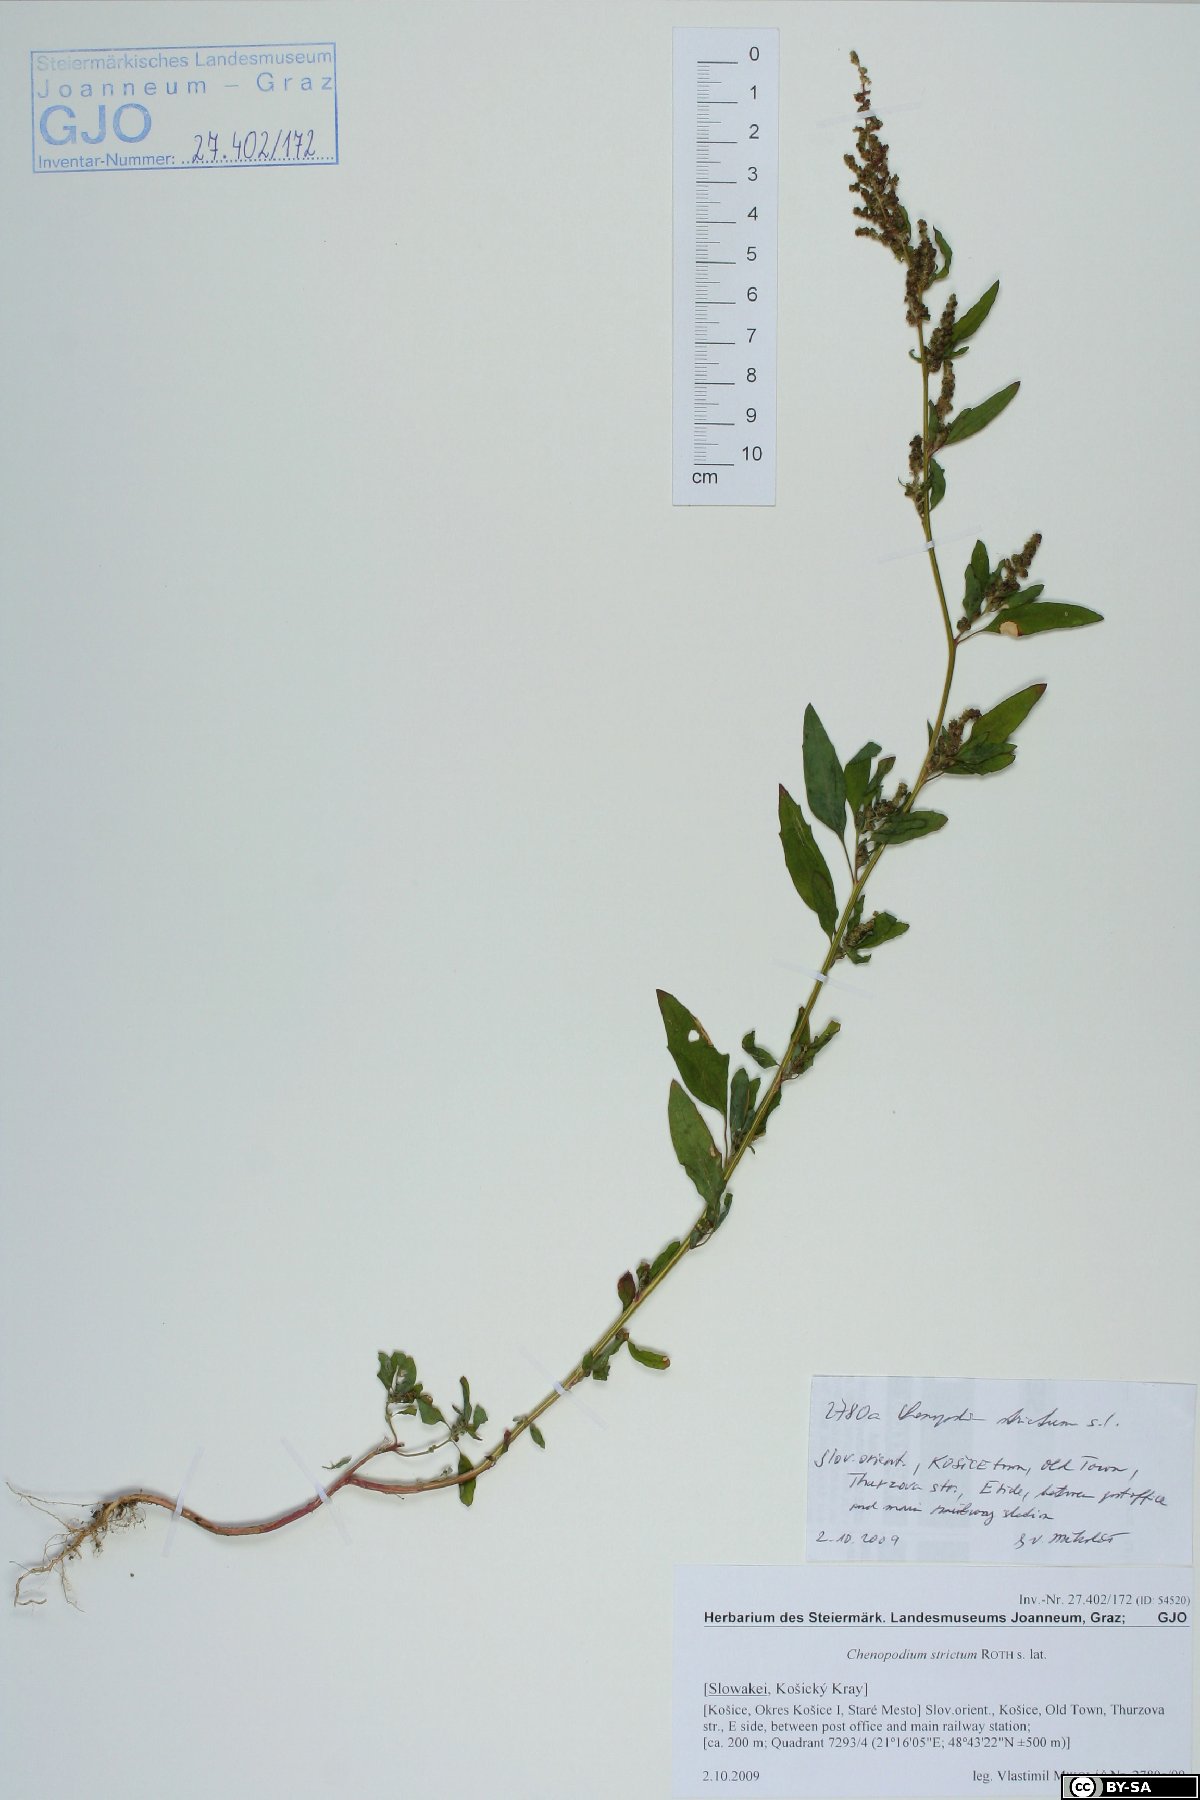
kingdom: Plantae
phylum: Tracheophyta
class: Magnoliopsida
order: Caryophyllales
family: Amaranthaceae
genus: Chenopodium
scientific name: Chenopodium album
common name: Fat-hen
